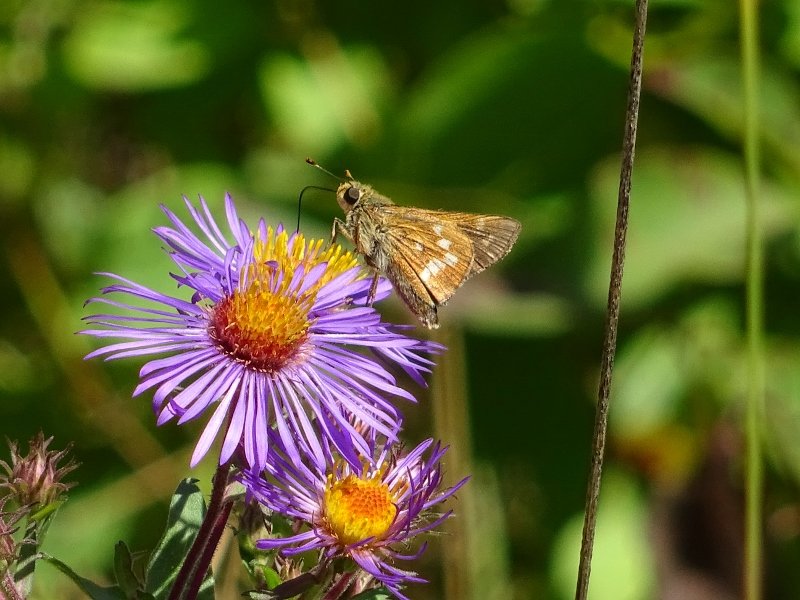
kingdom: Animalia
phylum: Arthropoda
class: Insecta
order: Lepidoptera
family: Hesperiidae
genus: Hesperia
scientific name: Hesperia leonardus
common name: Leonard's Skipper
